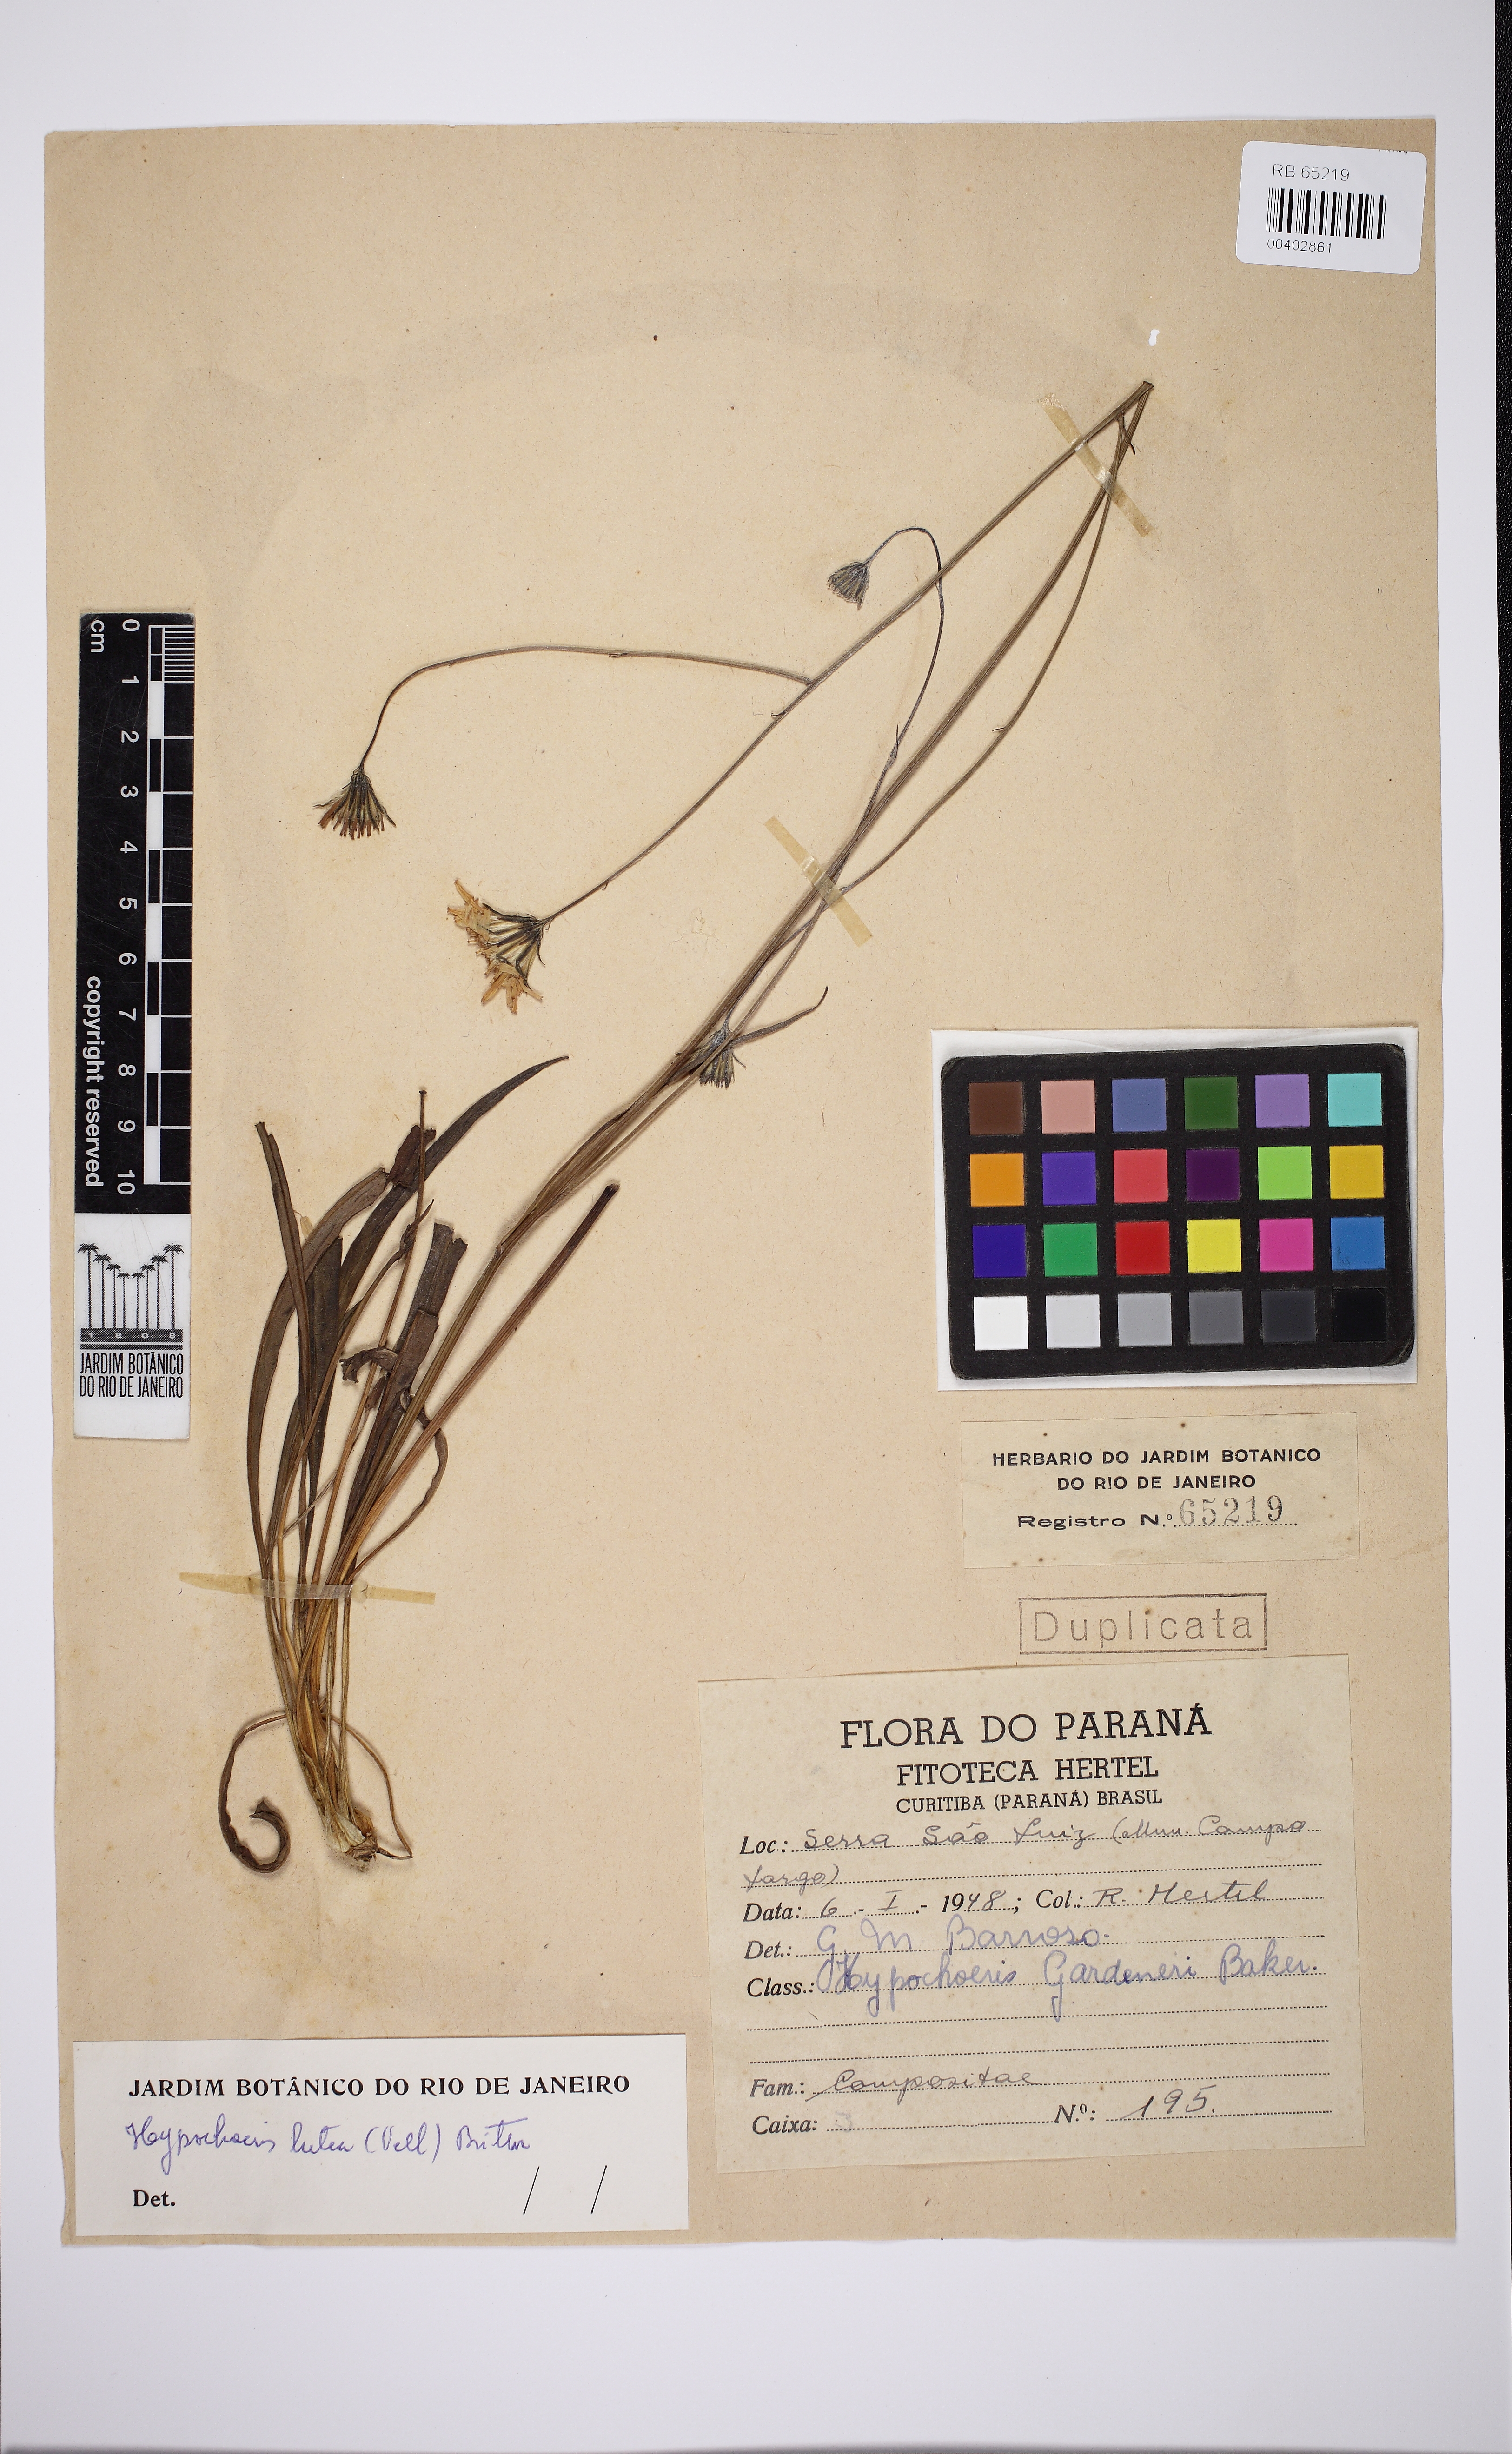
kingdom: Plantae
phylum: Tracheophyta
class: Magnoliopsida
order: Asterales
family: Asteraceae
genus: Hypochaeris
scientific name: Hypochaeris lutea
